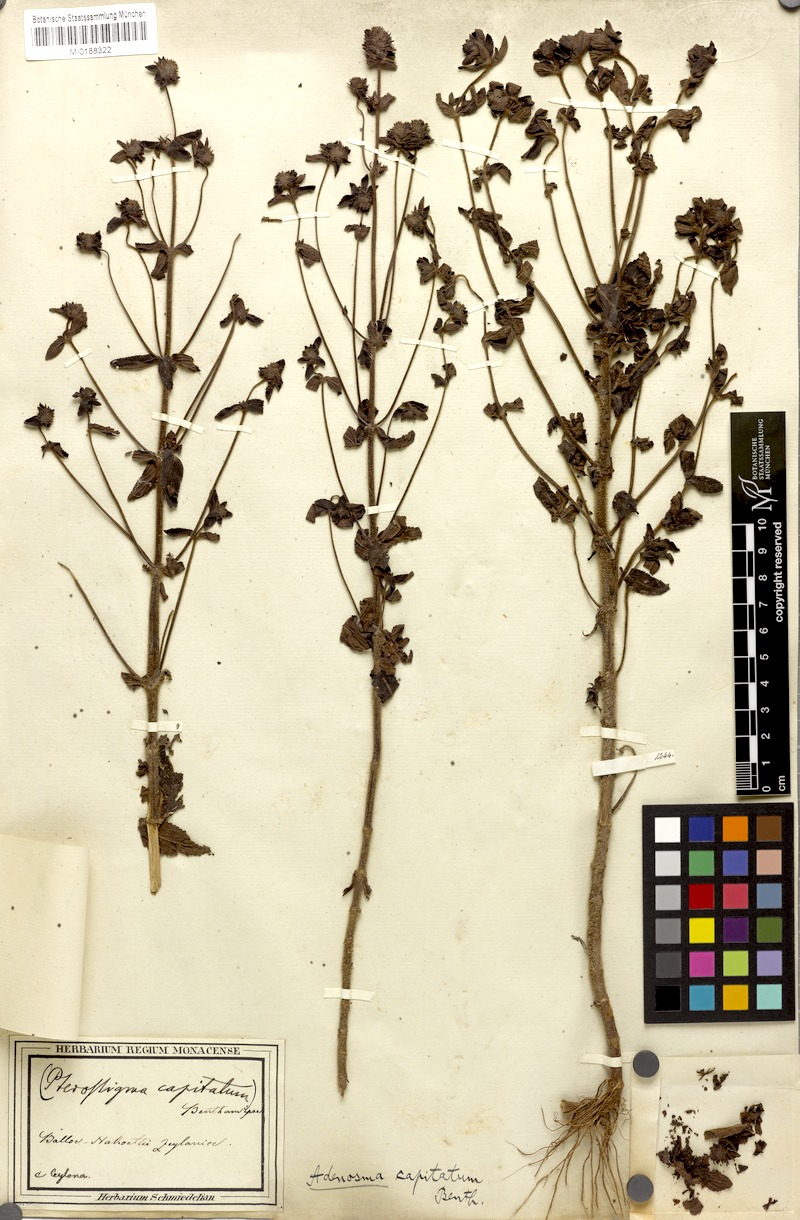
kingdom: Plantae
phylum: Tracheophyta
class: Magnoliopsida
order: Lamiales
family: Plantaginaceae
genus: Adenosma
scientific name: Adenosma indiana
